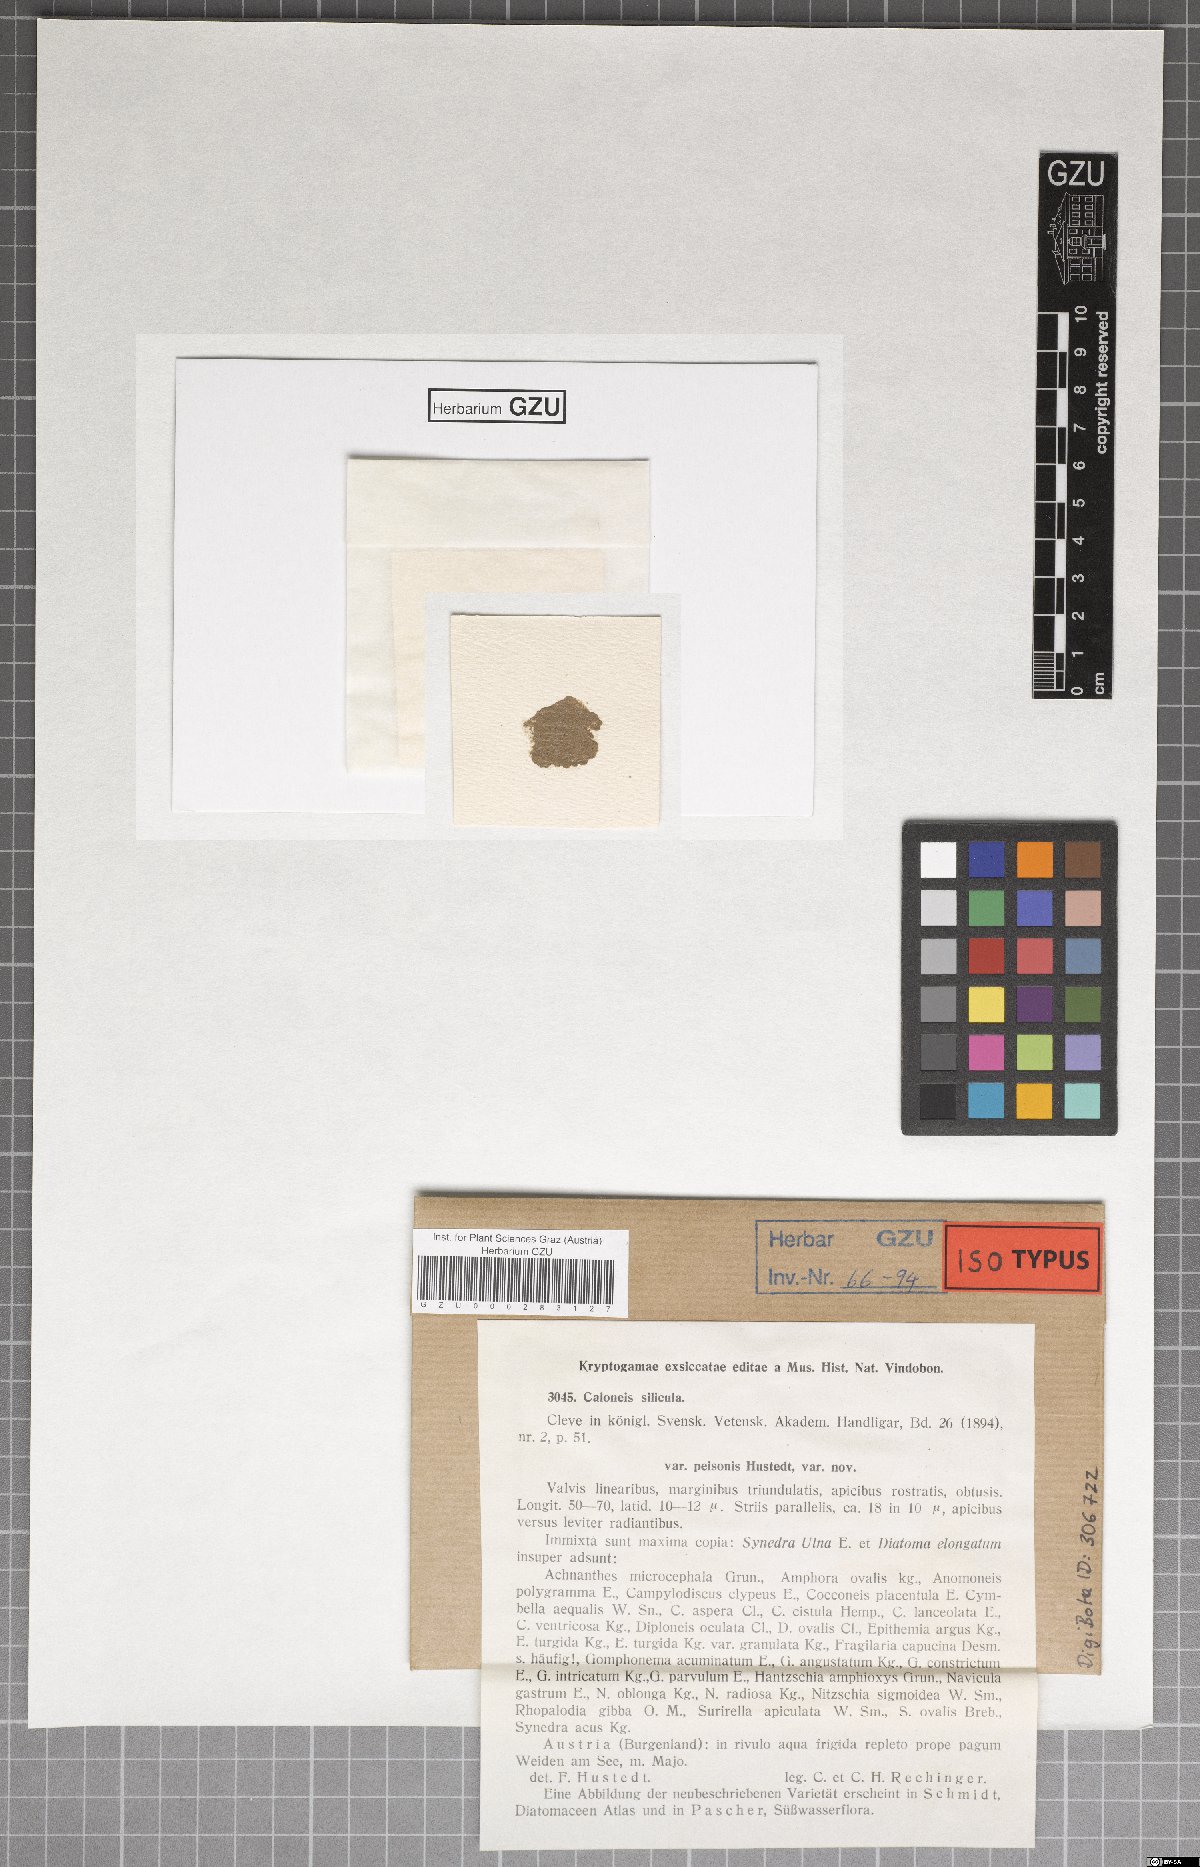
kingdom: Chromista
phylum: Ochrophyta
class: Bacillariophyceae
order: Naviculales
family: Naviculaceae
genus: Caloneis
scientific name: Caloneis silicula
